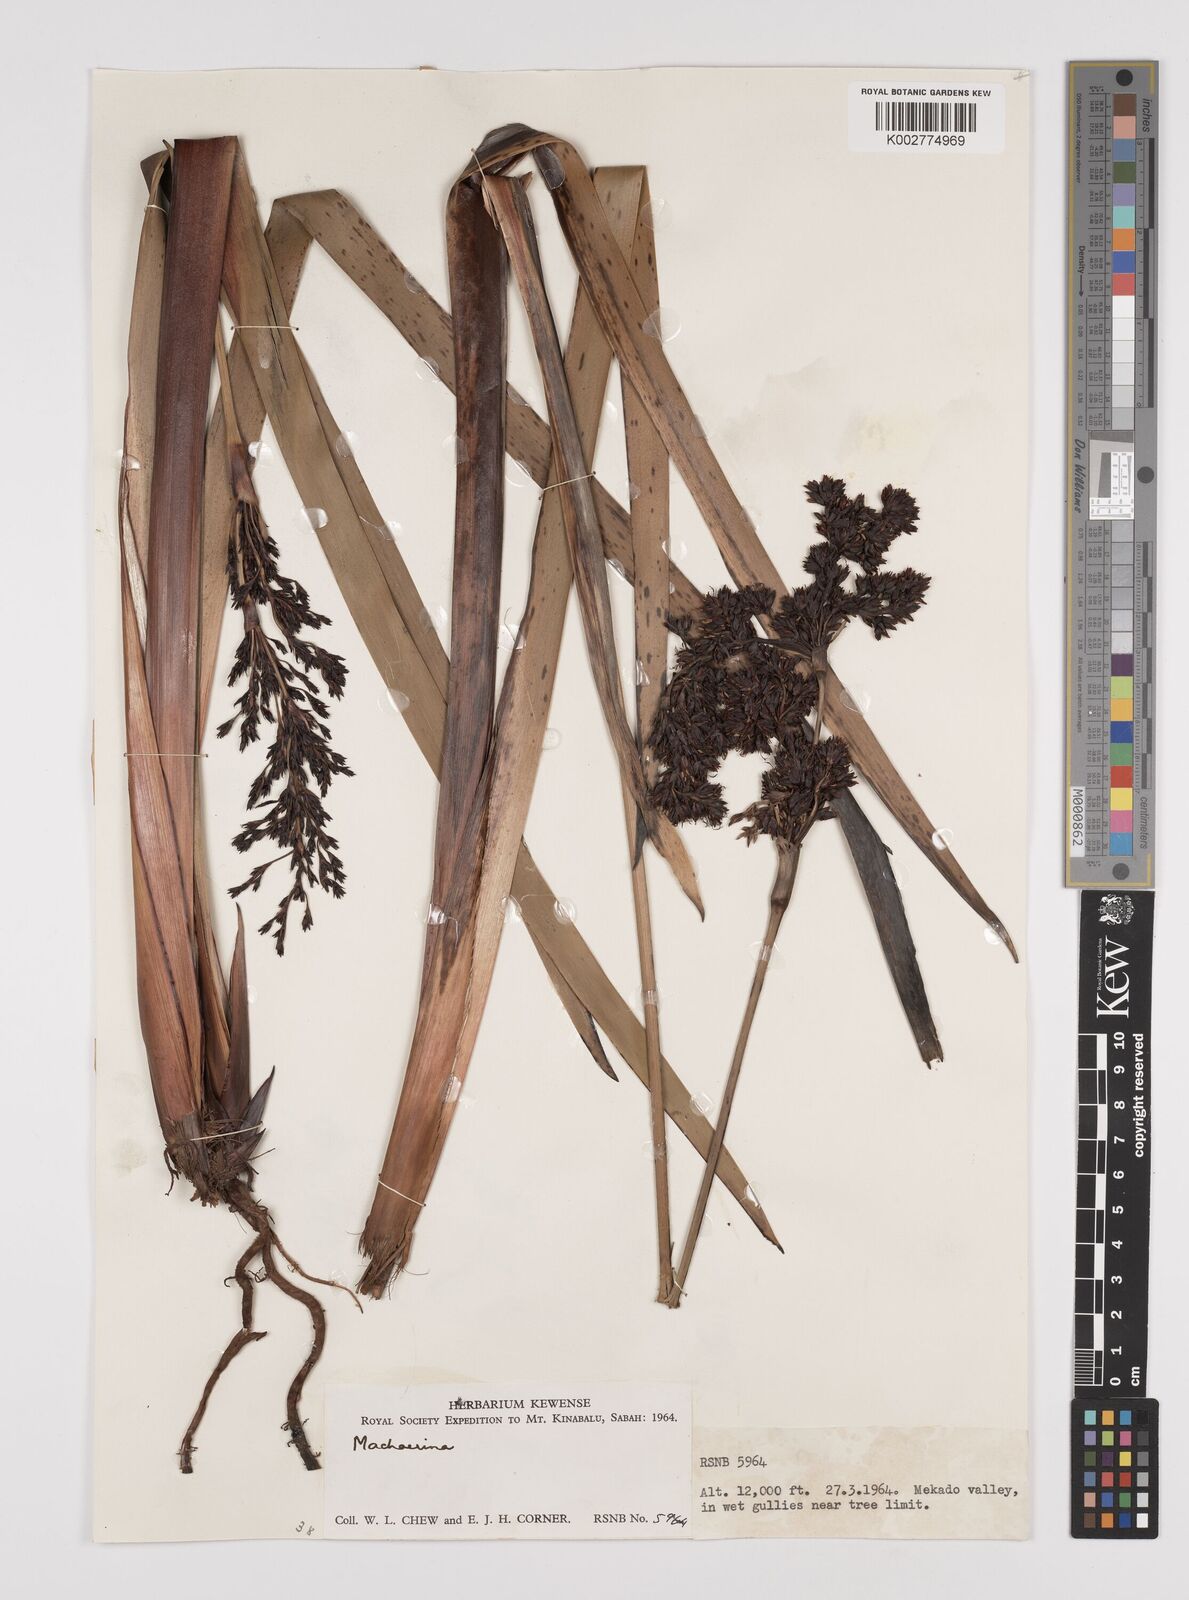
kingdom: Plantae
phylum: Tracheophyta
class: Liliopsida
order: Poales
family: Cyperaceae
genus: Machaerina
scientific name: Machaerina falcata
